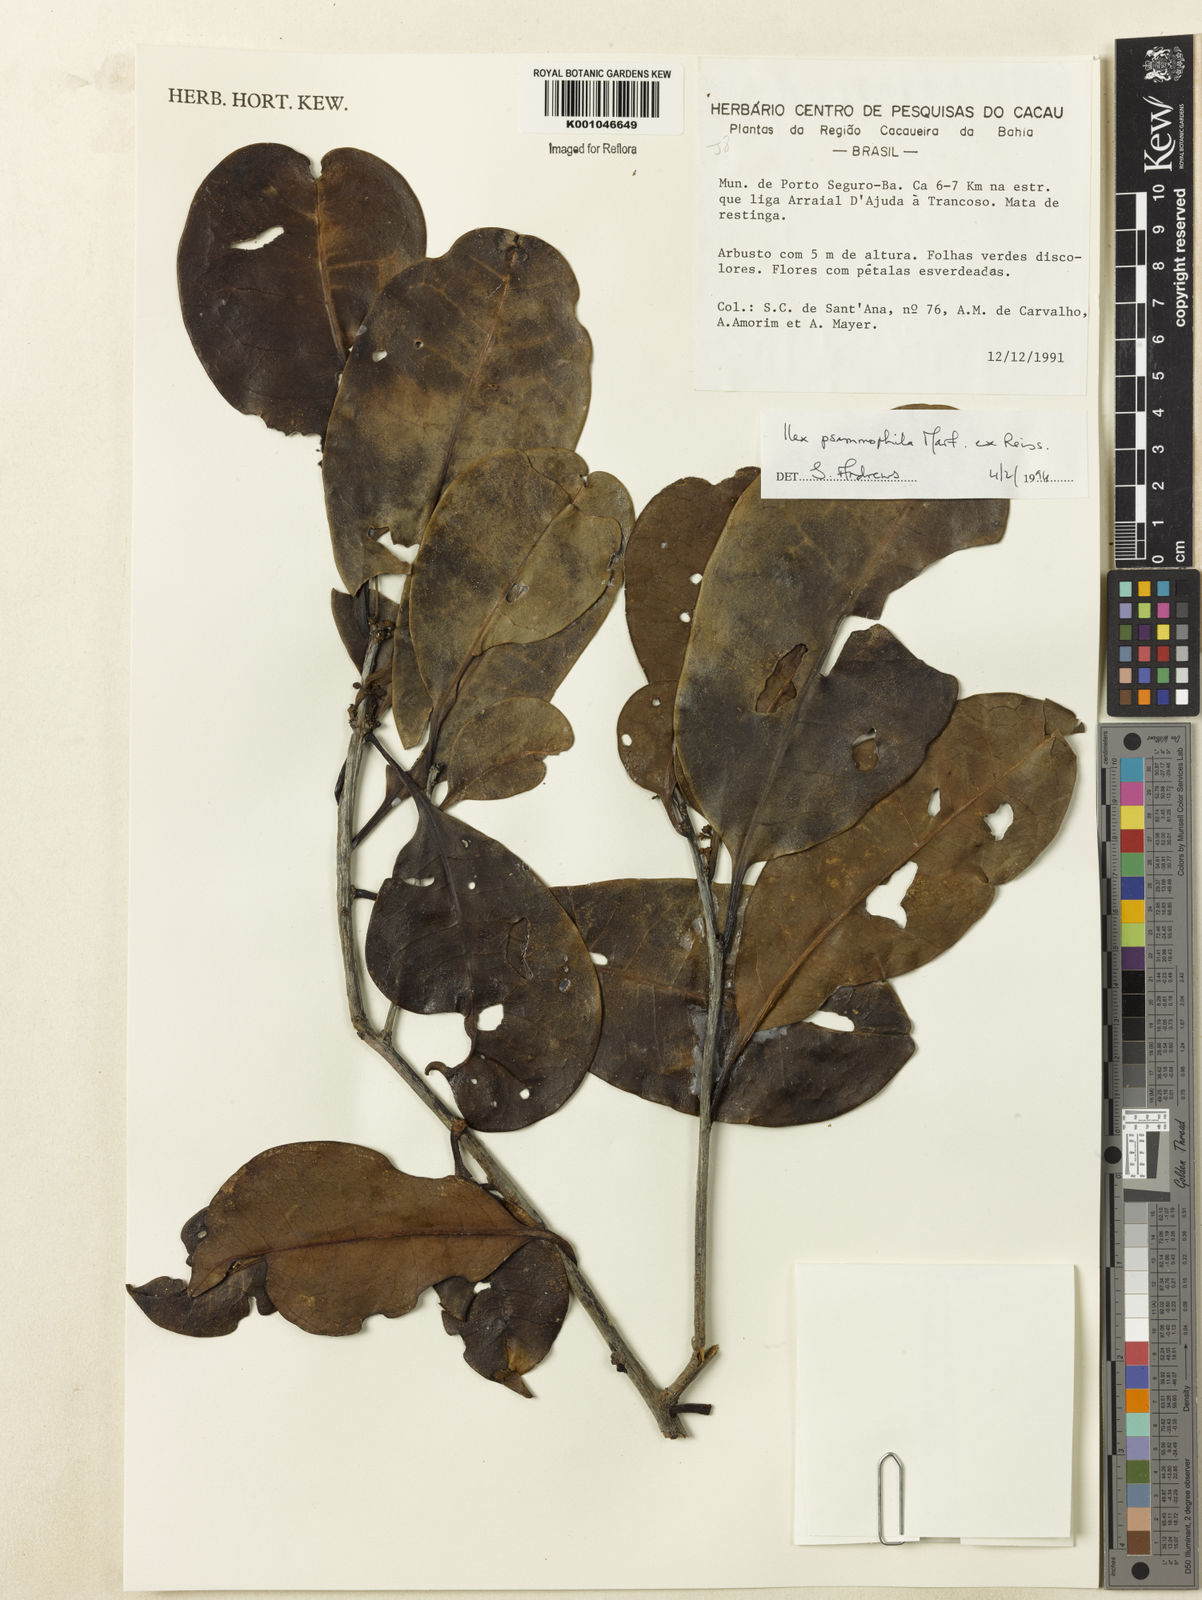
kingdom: Plantae
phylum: Tracheophyta
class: Magnoliopsida
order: Aquifoliales
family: Aquifoliaceae
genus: Ilex
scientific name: Ilex psammophila
